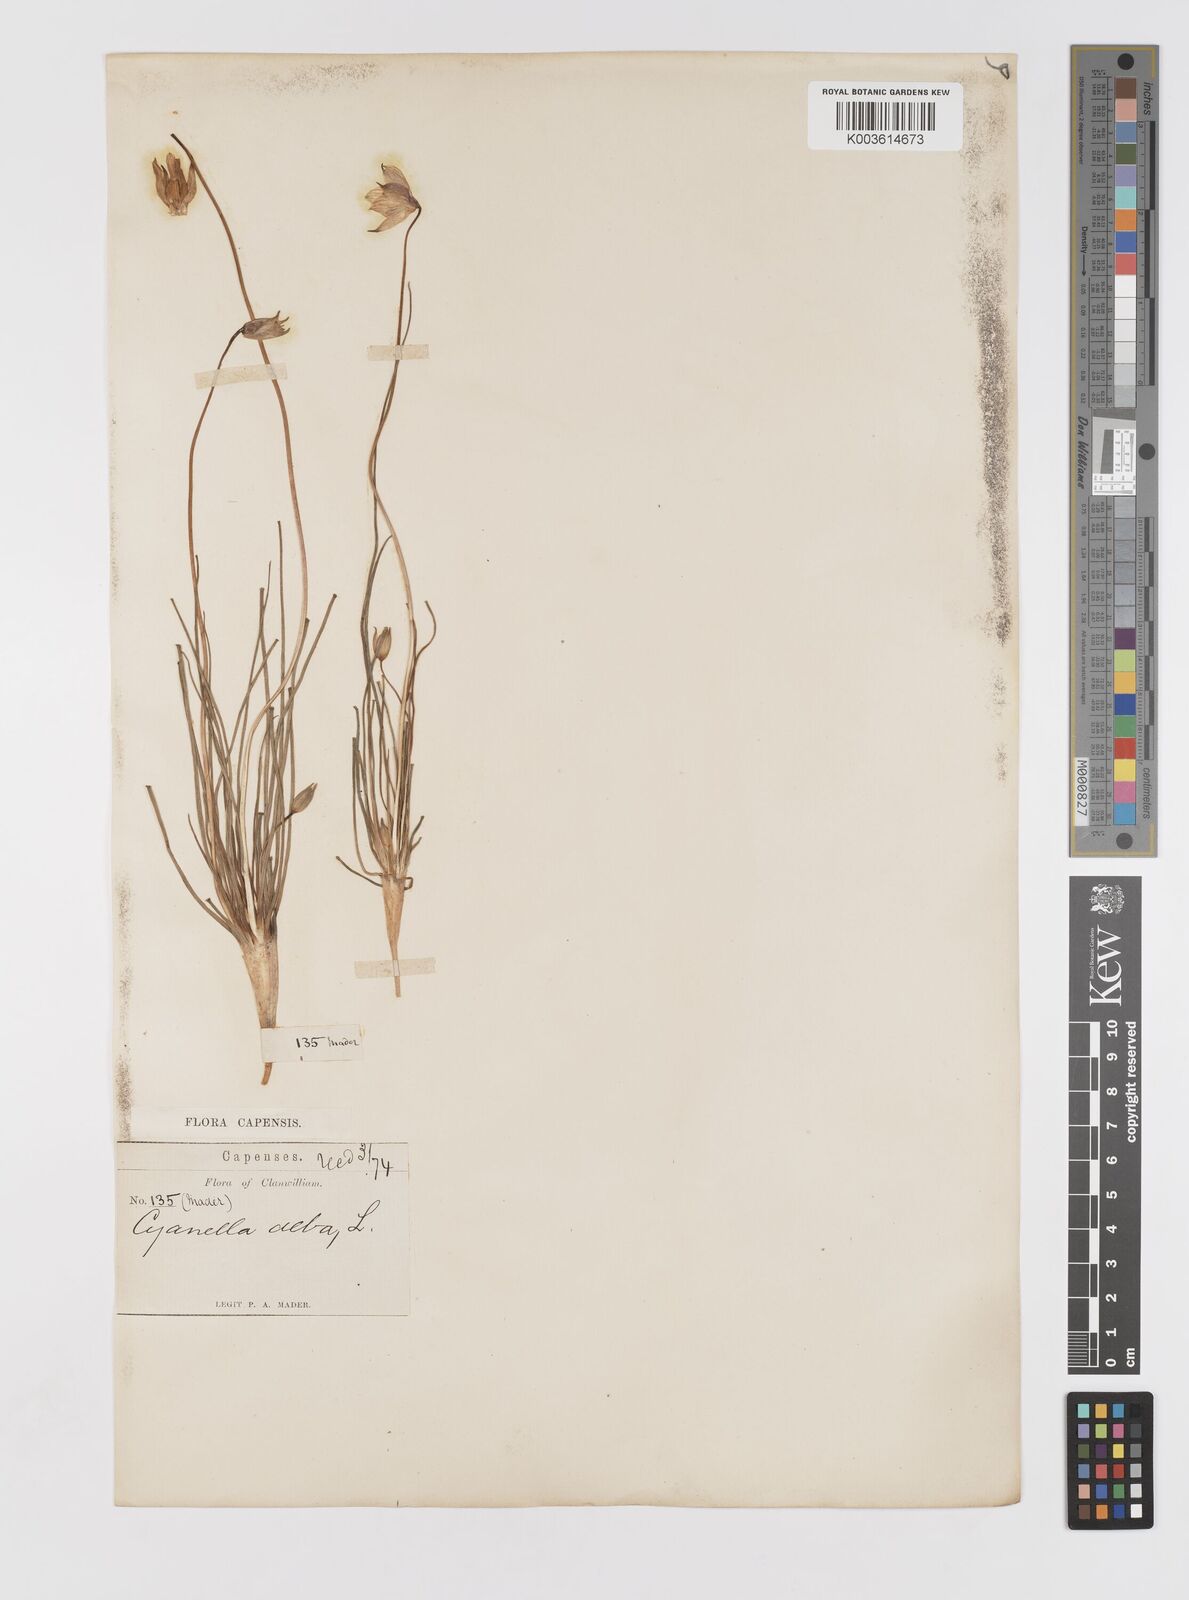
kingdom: Plantae
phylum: Tracheophyta
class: Liliopsida
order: Asparagales
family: Tecophilaeaceae
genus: Cyanella
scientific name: Cyanella alba
